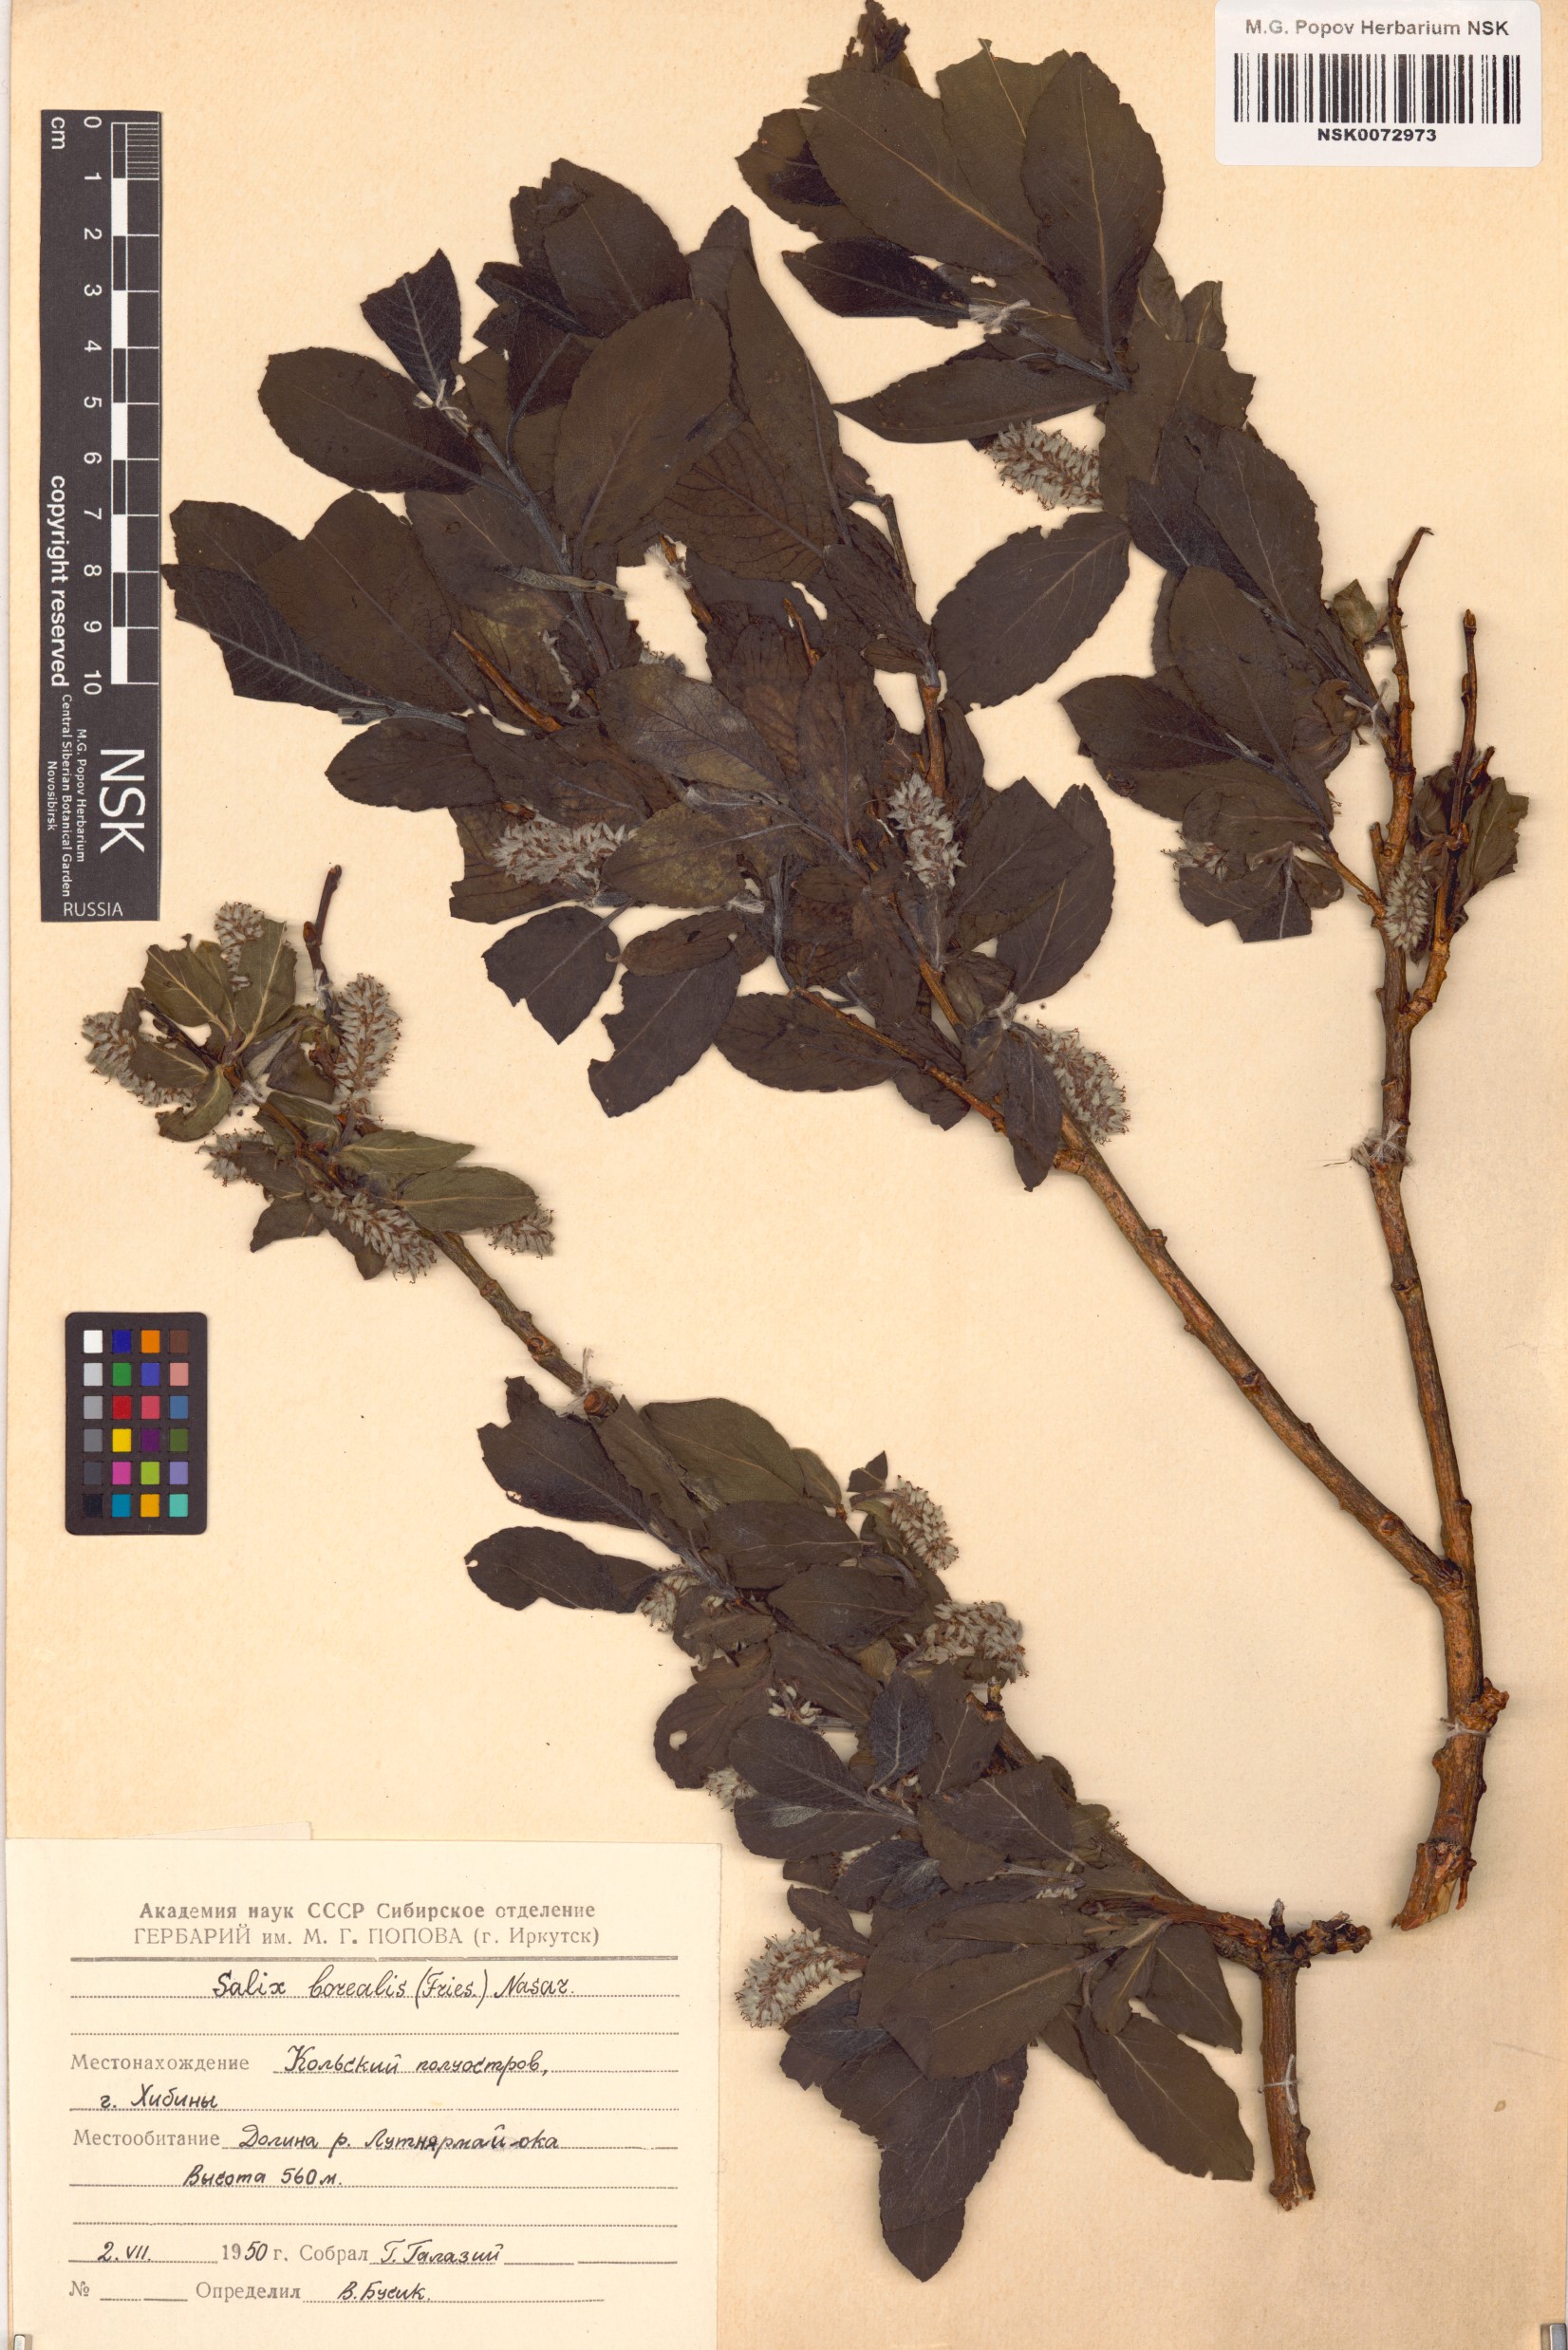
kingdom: Plantae
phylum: Tracheophyta
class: Magnoliopsida
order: Malpighiales
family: Salicaceae
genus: Salix
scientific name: Salix myrsinifolia
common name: Dark-leaved willow
